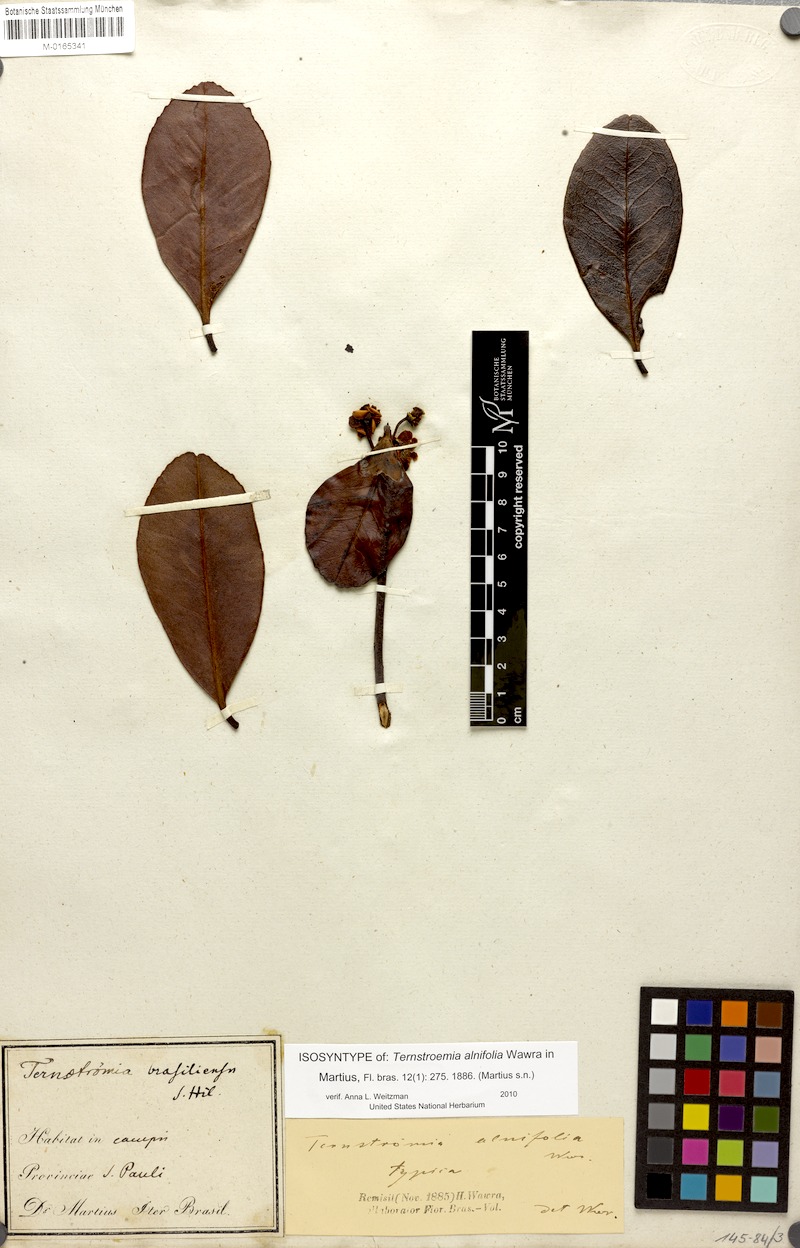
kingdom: Plantae
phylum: Tracheophyta
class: Magnoliopsida
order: Ericales
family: Pentaphylacaceae
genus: Ternstroemia
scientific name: Ternstroemia alnifolia
